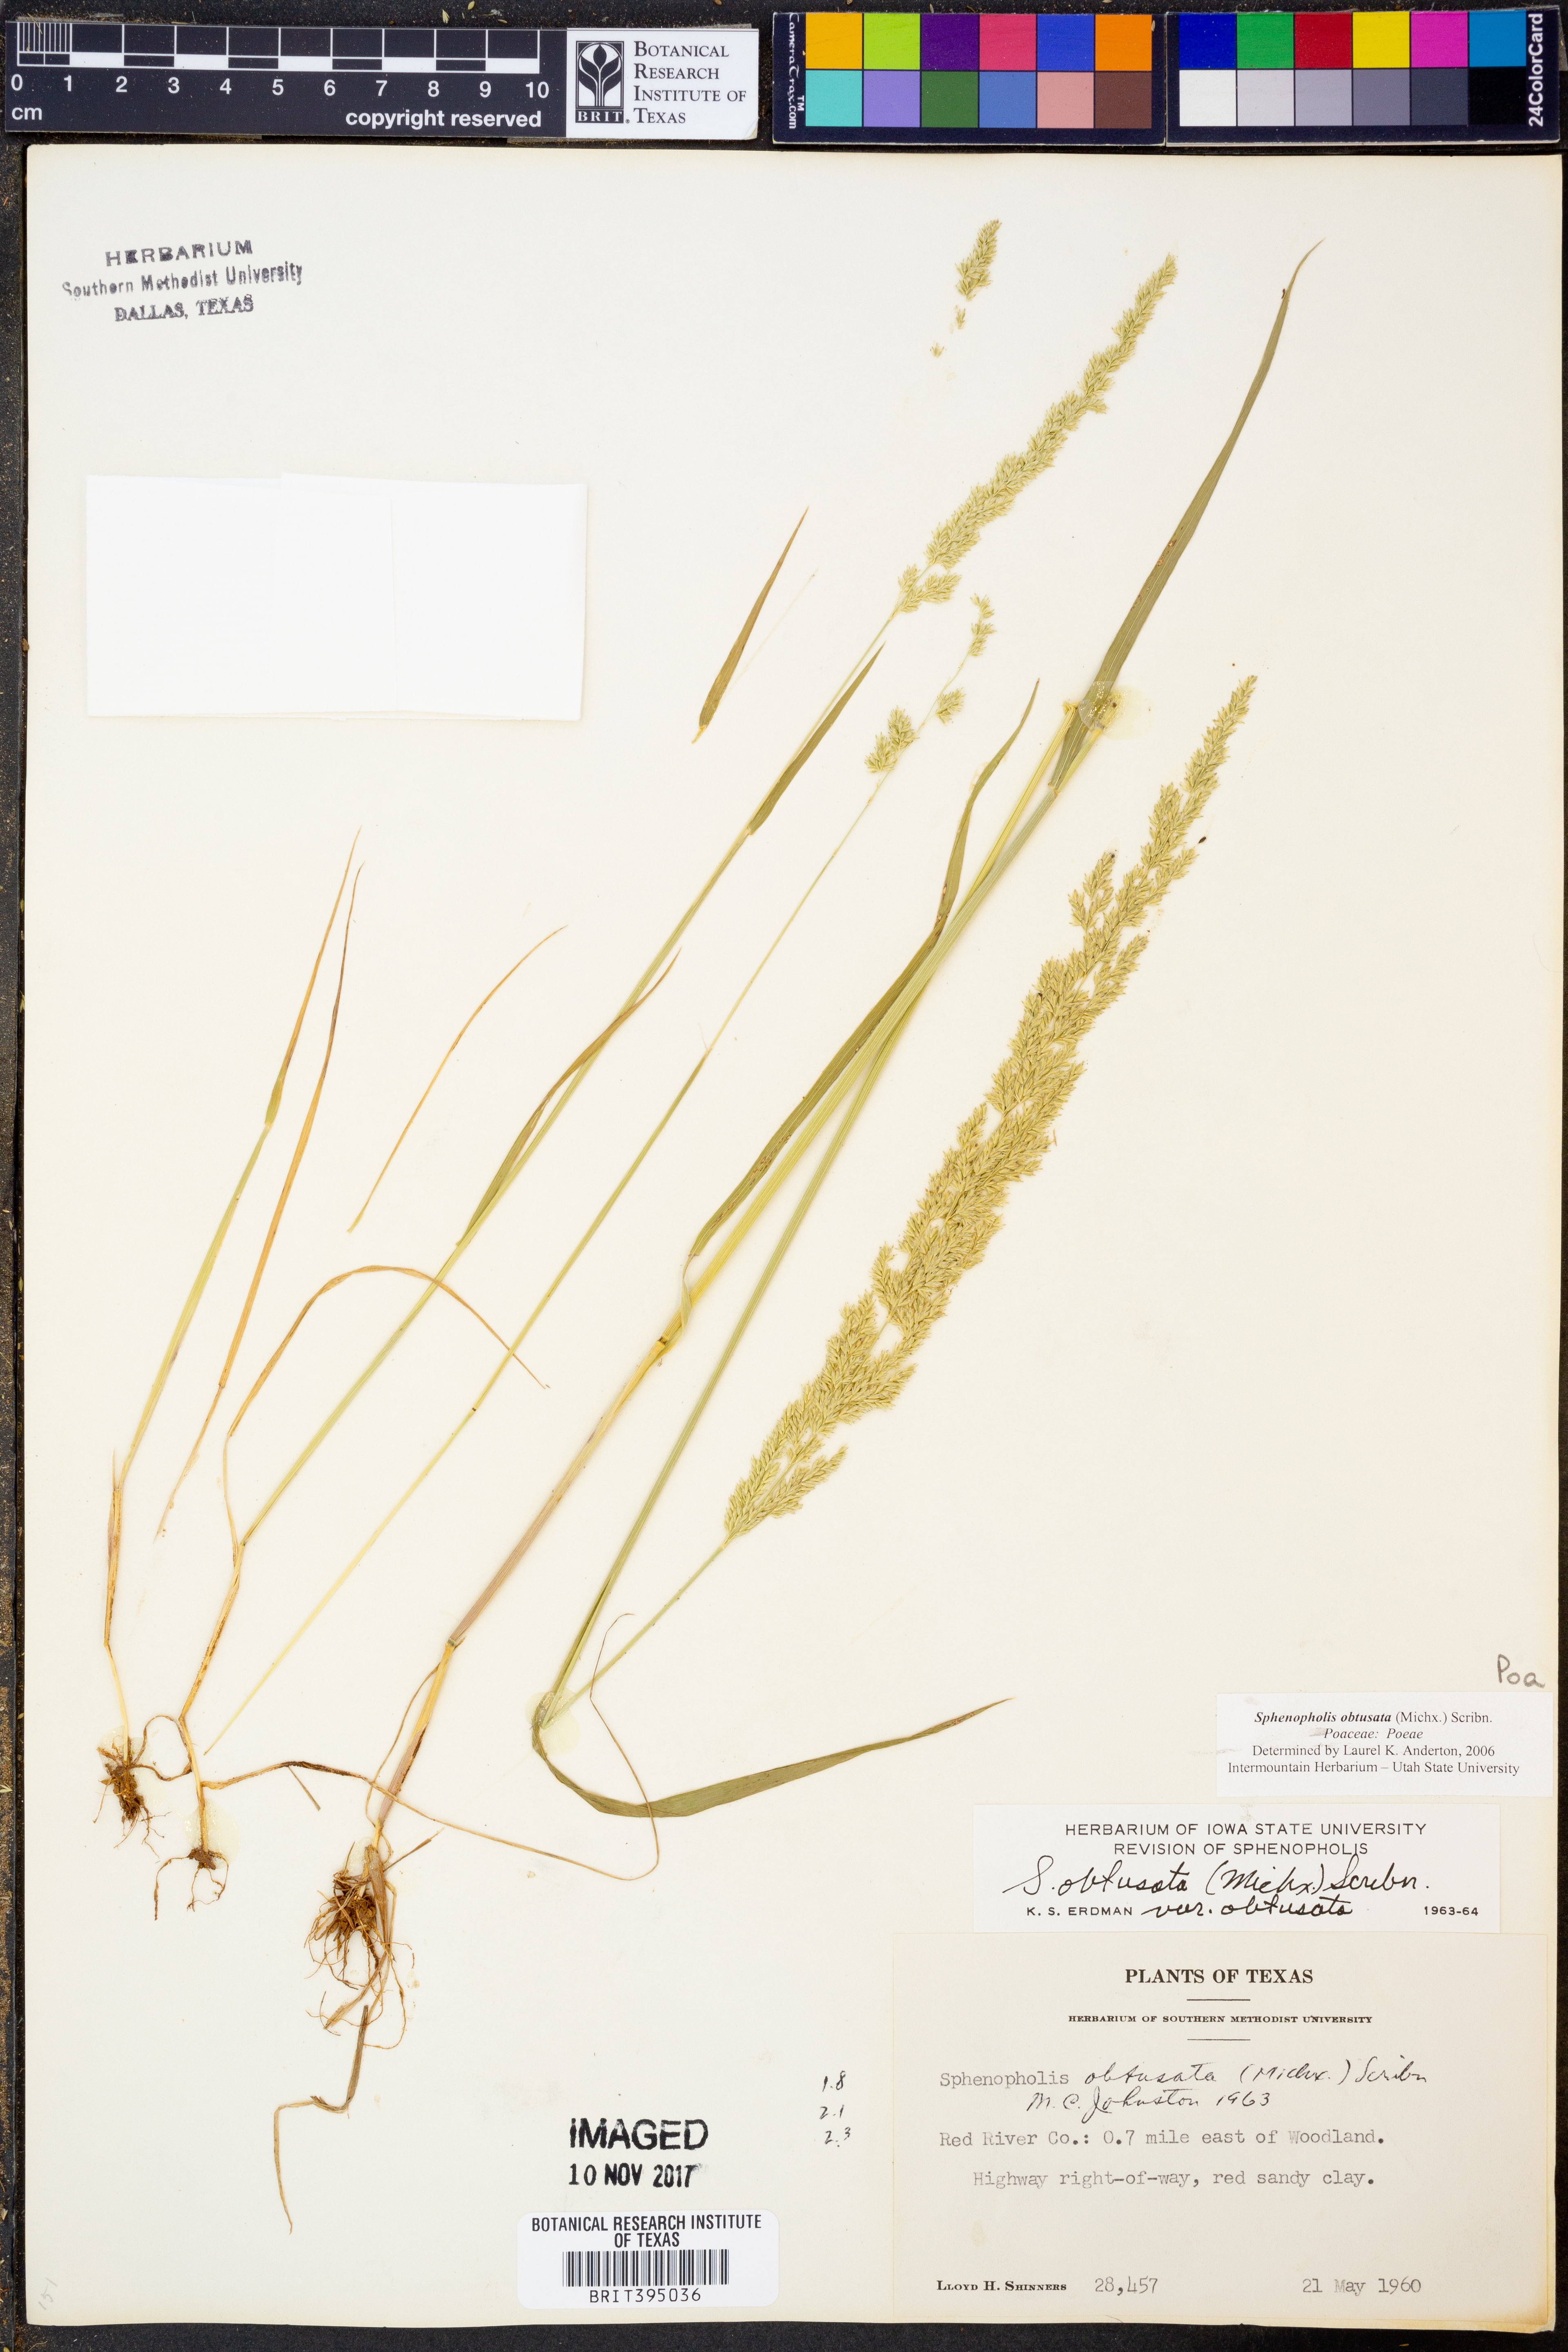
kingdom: Plantae
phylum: Tracheophyta
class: Liliopsida
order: Poales
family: Poaceae
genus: Sphenopholis
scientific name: Sphenopholis obtusata
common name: Prairie grass
